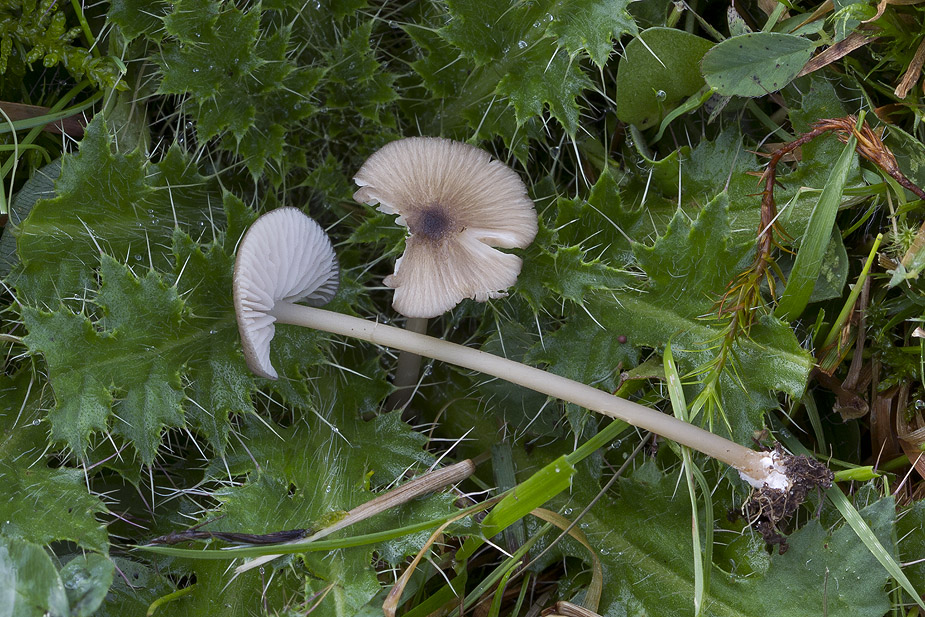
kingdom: Fungi
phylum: Basidiomycota
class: Agaricomycetes
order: Agaricales
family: Entolomataceae
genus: Entoloma
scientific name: Entoloma exile
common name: rødplettet rødblad
